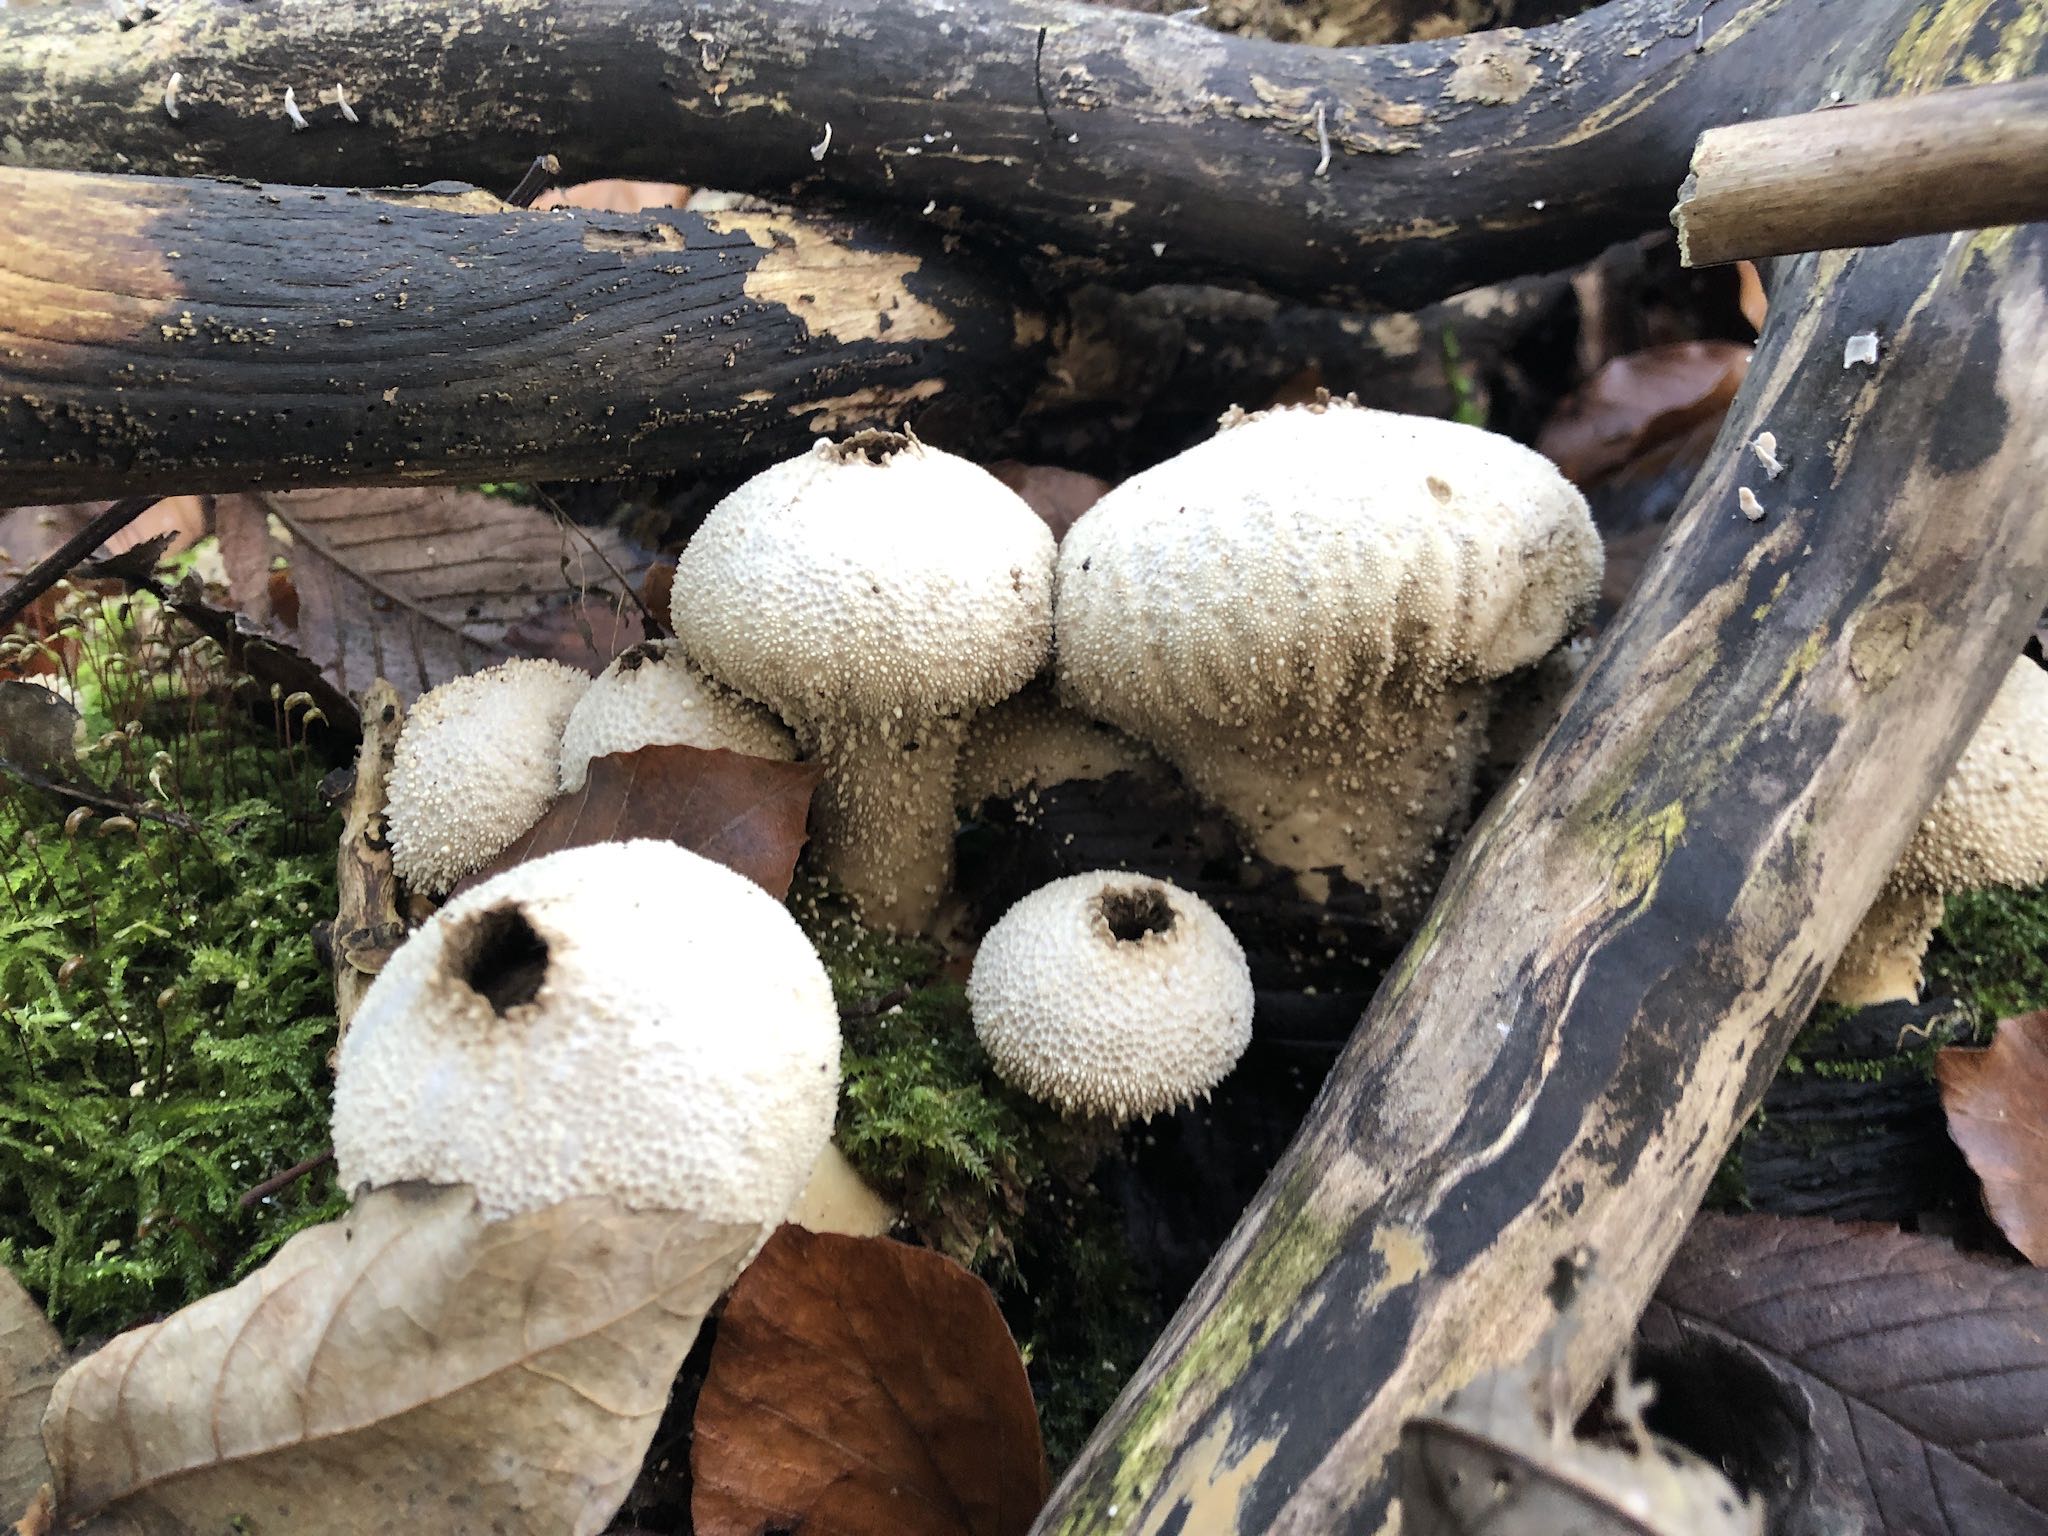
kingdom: Fungi
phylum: Basidiomycota
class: Agaricomycetes
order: Agaricales
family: Lycoperdaceae
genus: Lycoperdon
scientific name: Lycoperdon perlatum
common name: krystal-støvbold
